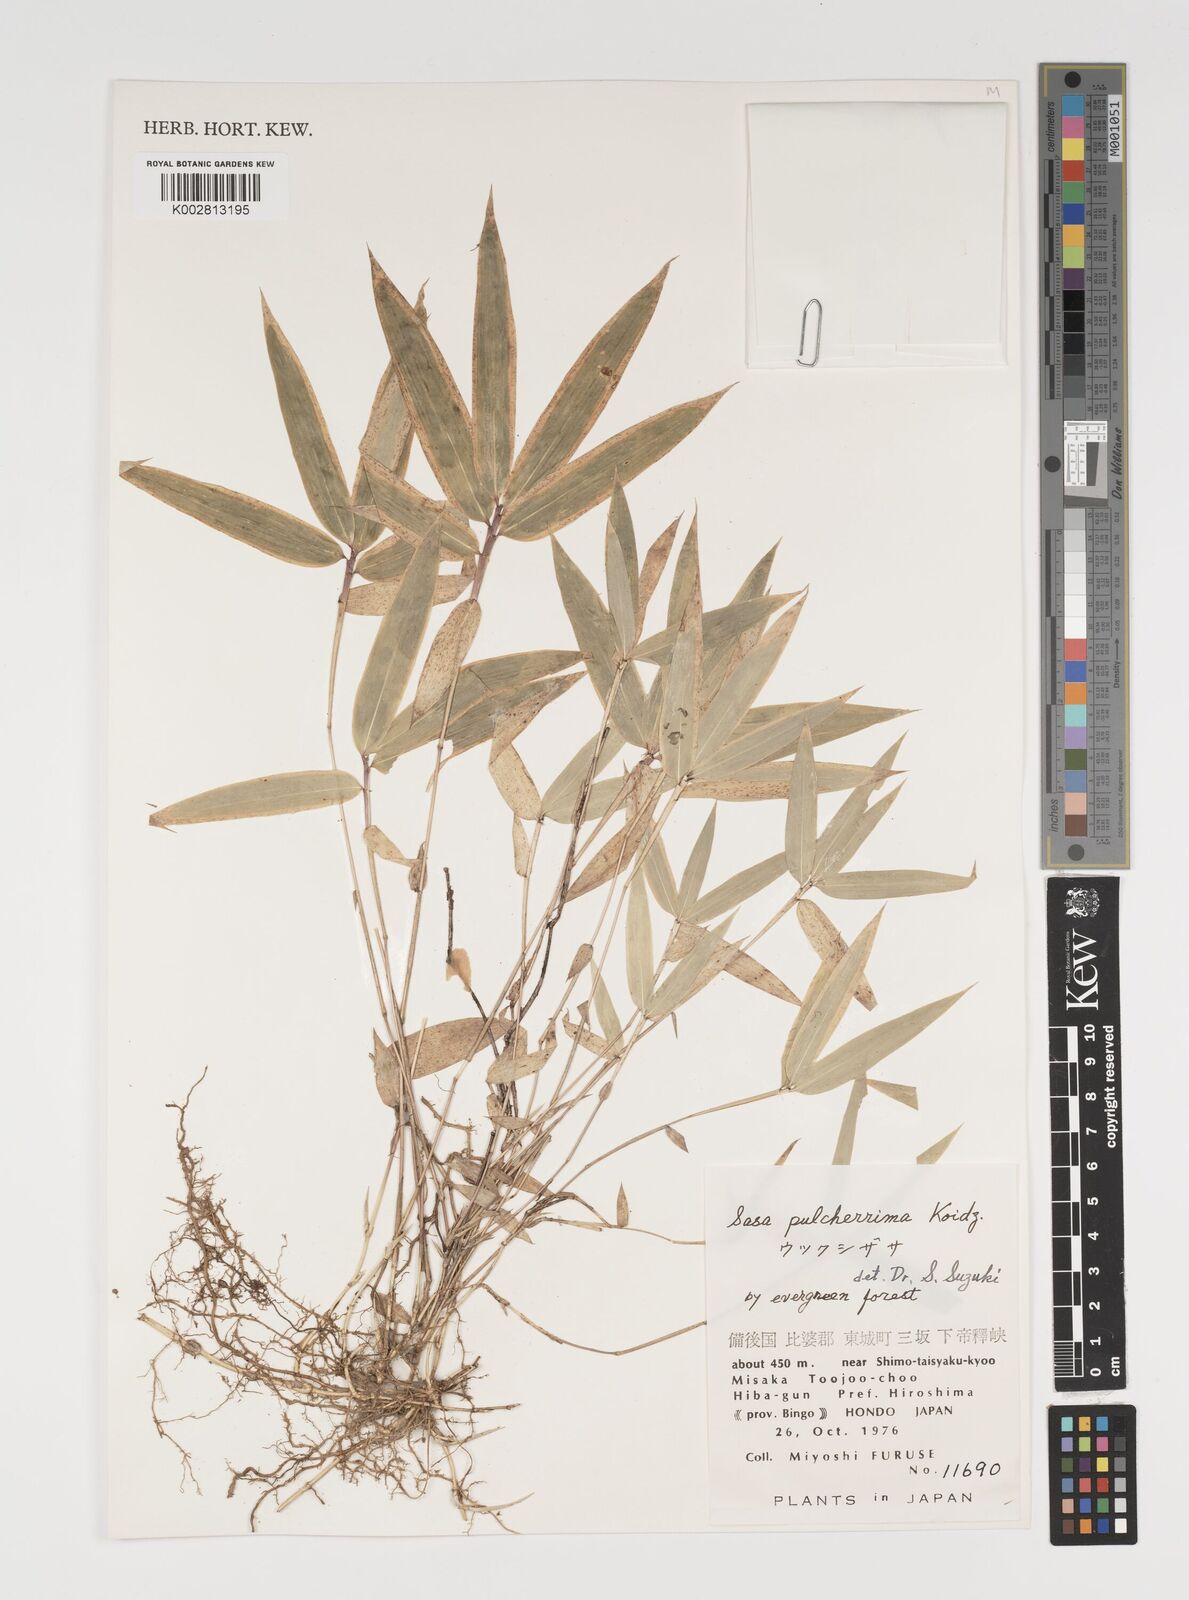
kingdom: Plantae
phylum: Tracheophyta
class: Liliopsida
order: Poales
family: Poaceae
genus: Sasa
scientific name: Sasa pulcherrima
